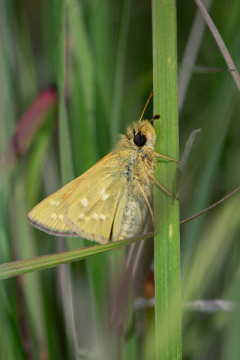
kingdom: Animalia
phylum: Arthropoda
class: Insecta
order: Lepidoptera
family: Hesperiidae
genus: Hesperia
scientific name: Hesperia comma
